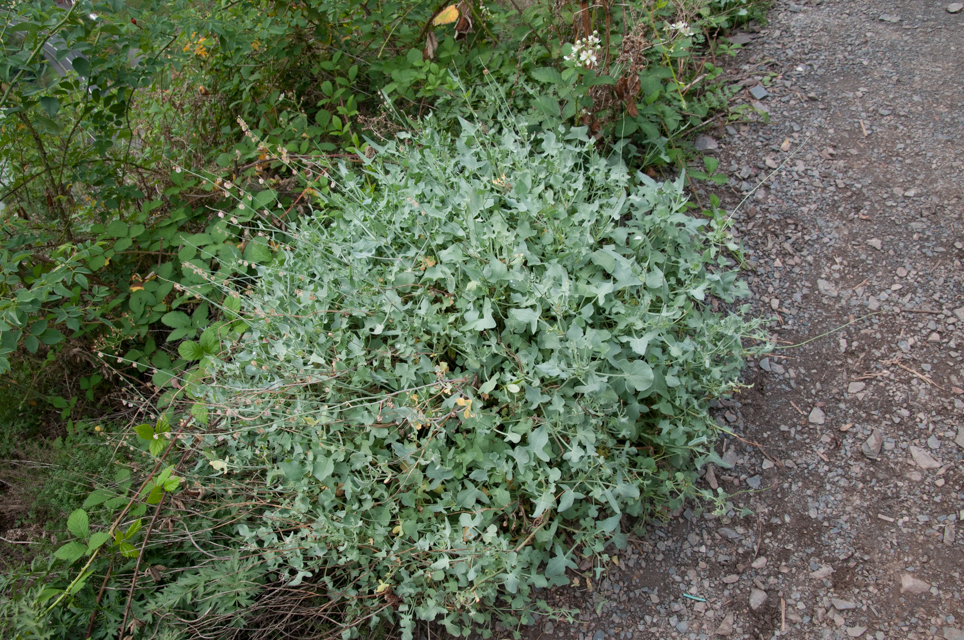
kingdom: Plantae
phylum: Tracheophyta
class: Magnoliopsida
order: Caryophyllales
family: Polygonaceae
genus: Rumex
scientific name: Rumex scutatus
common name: French sorrel
